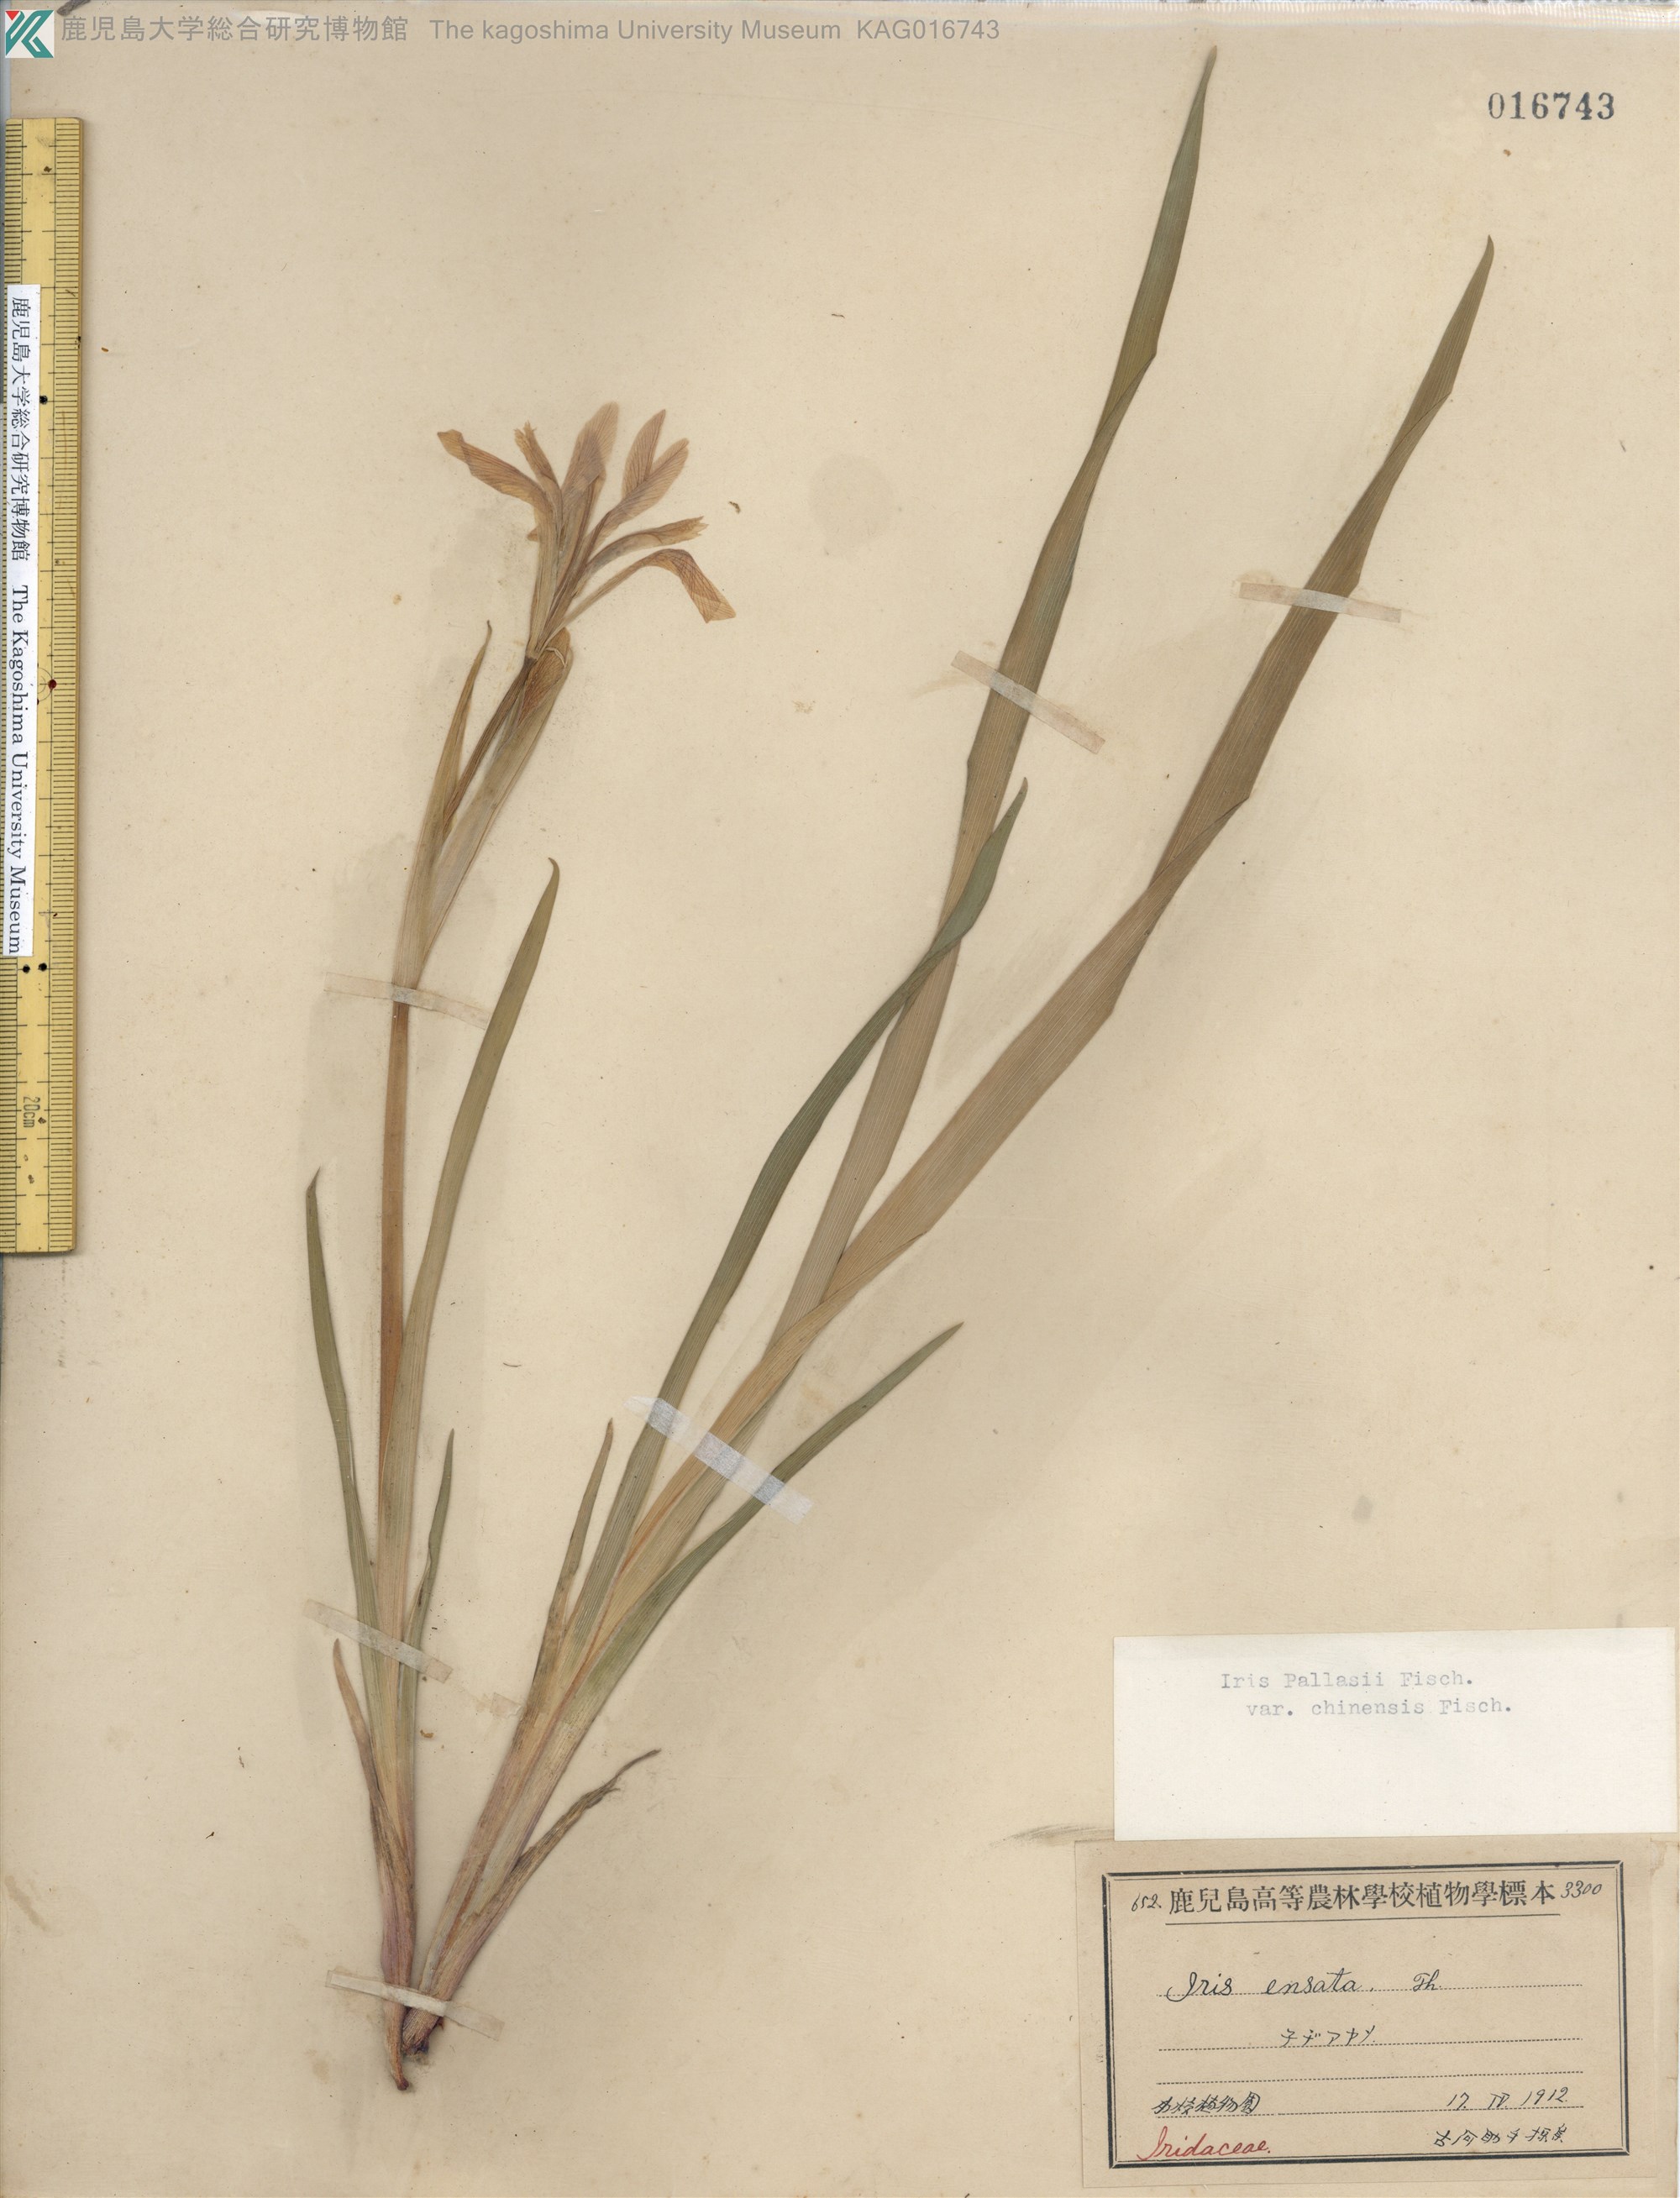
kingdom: Plantae
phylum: Tracheophyta
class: Liliopsida
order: Asparagales
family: Iridaceae
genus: Iris
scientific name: Iris pallasii
